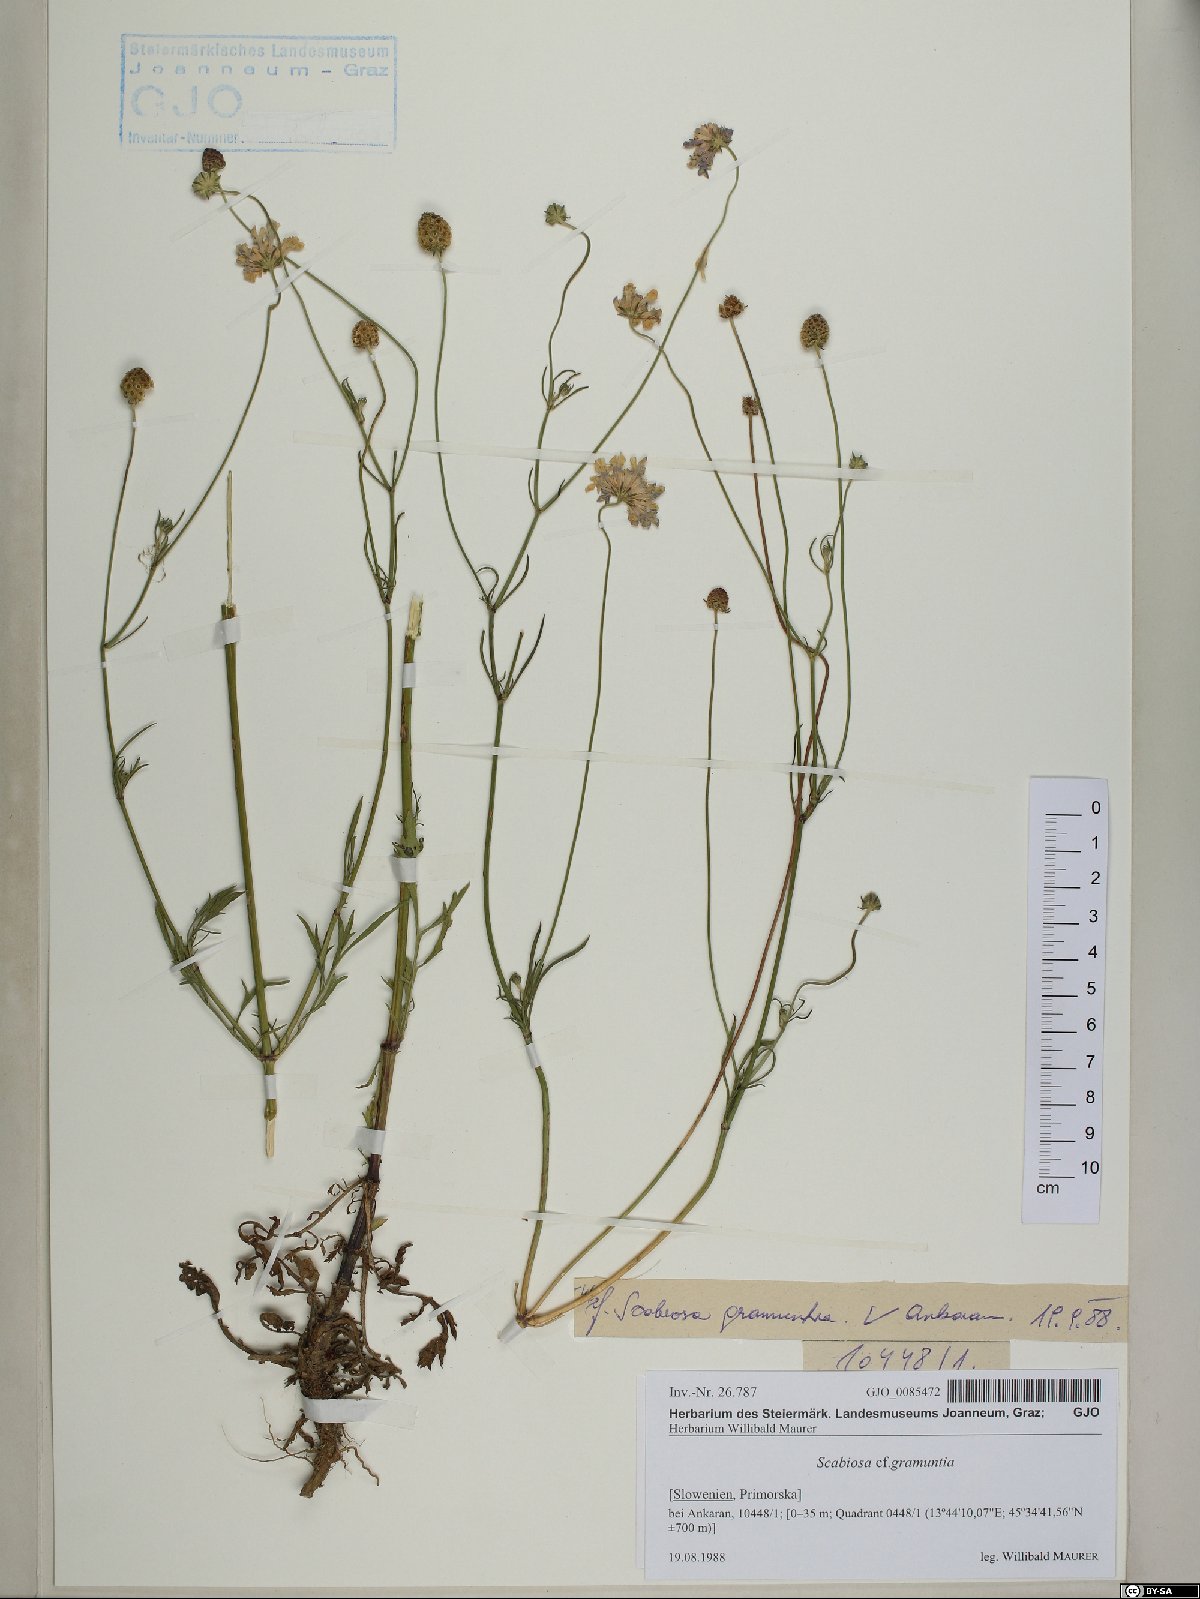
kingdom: Plantae
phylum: Tracheophyta
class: Magnoliopsida
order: Dipsacales
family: Caprifoliaceae
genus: Scabiosa
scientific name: Scabiosa triandra
